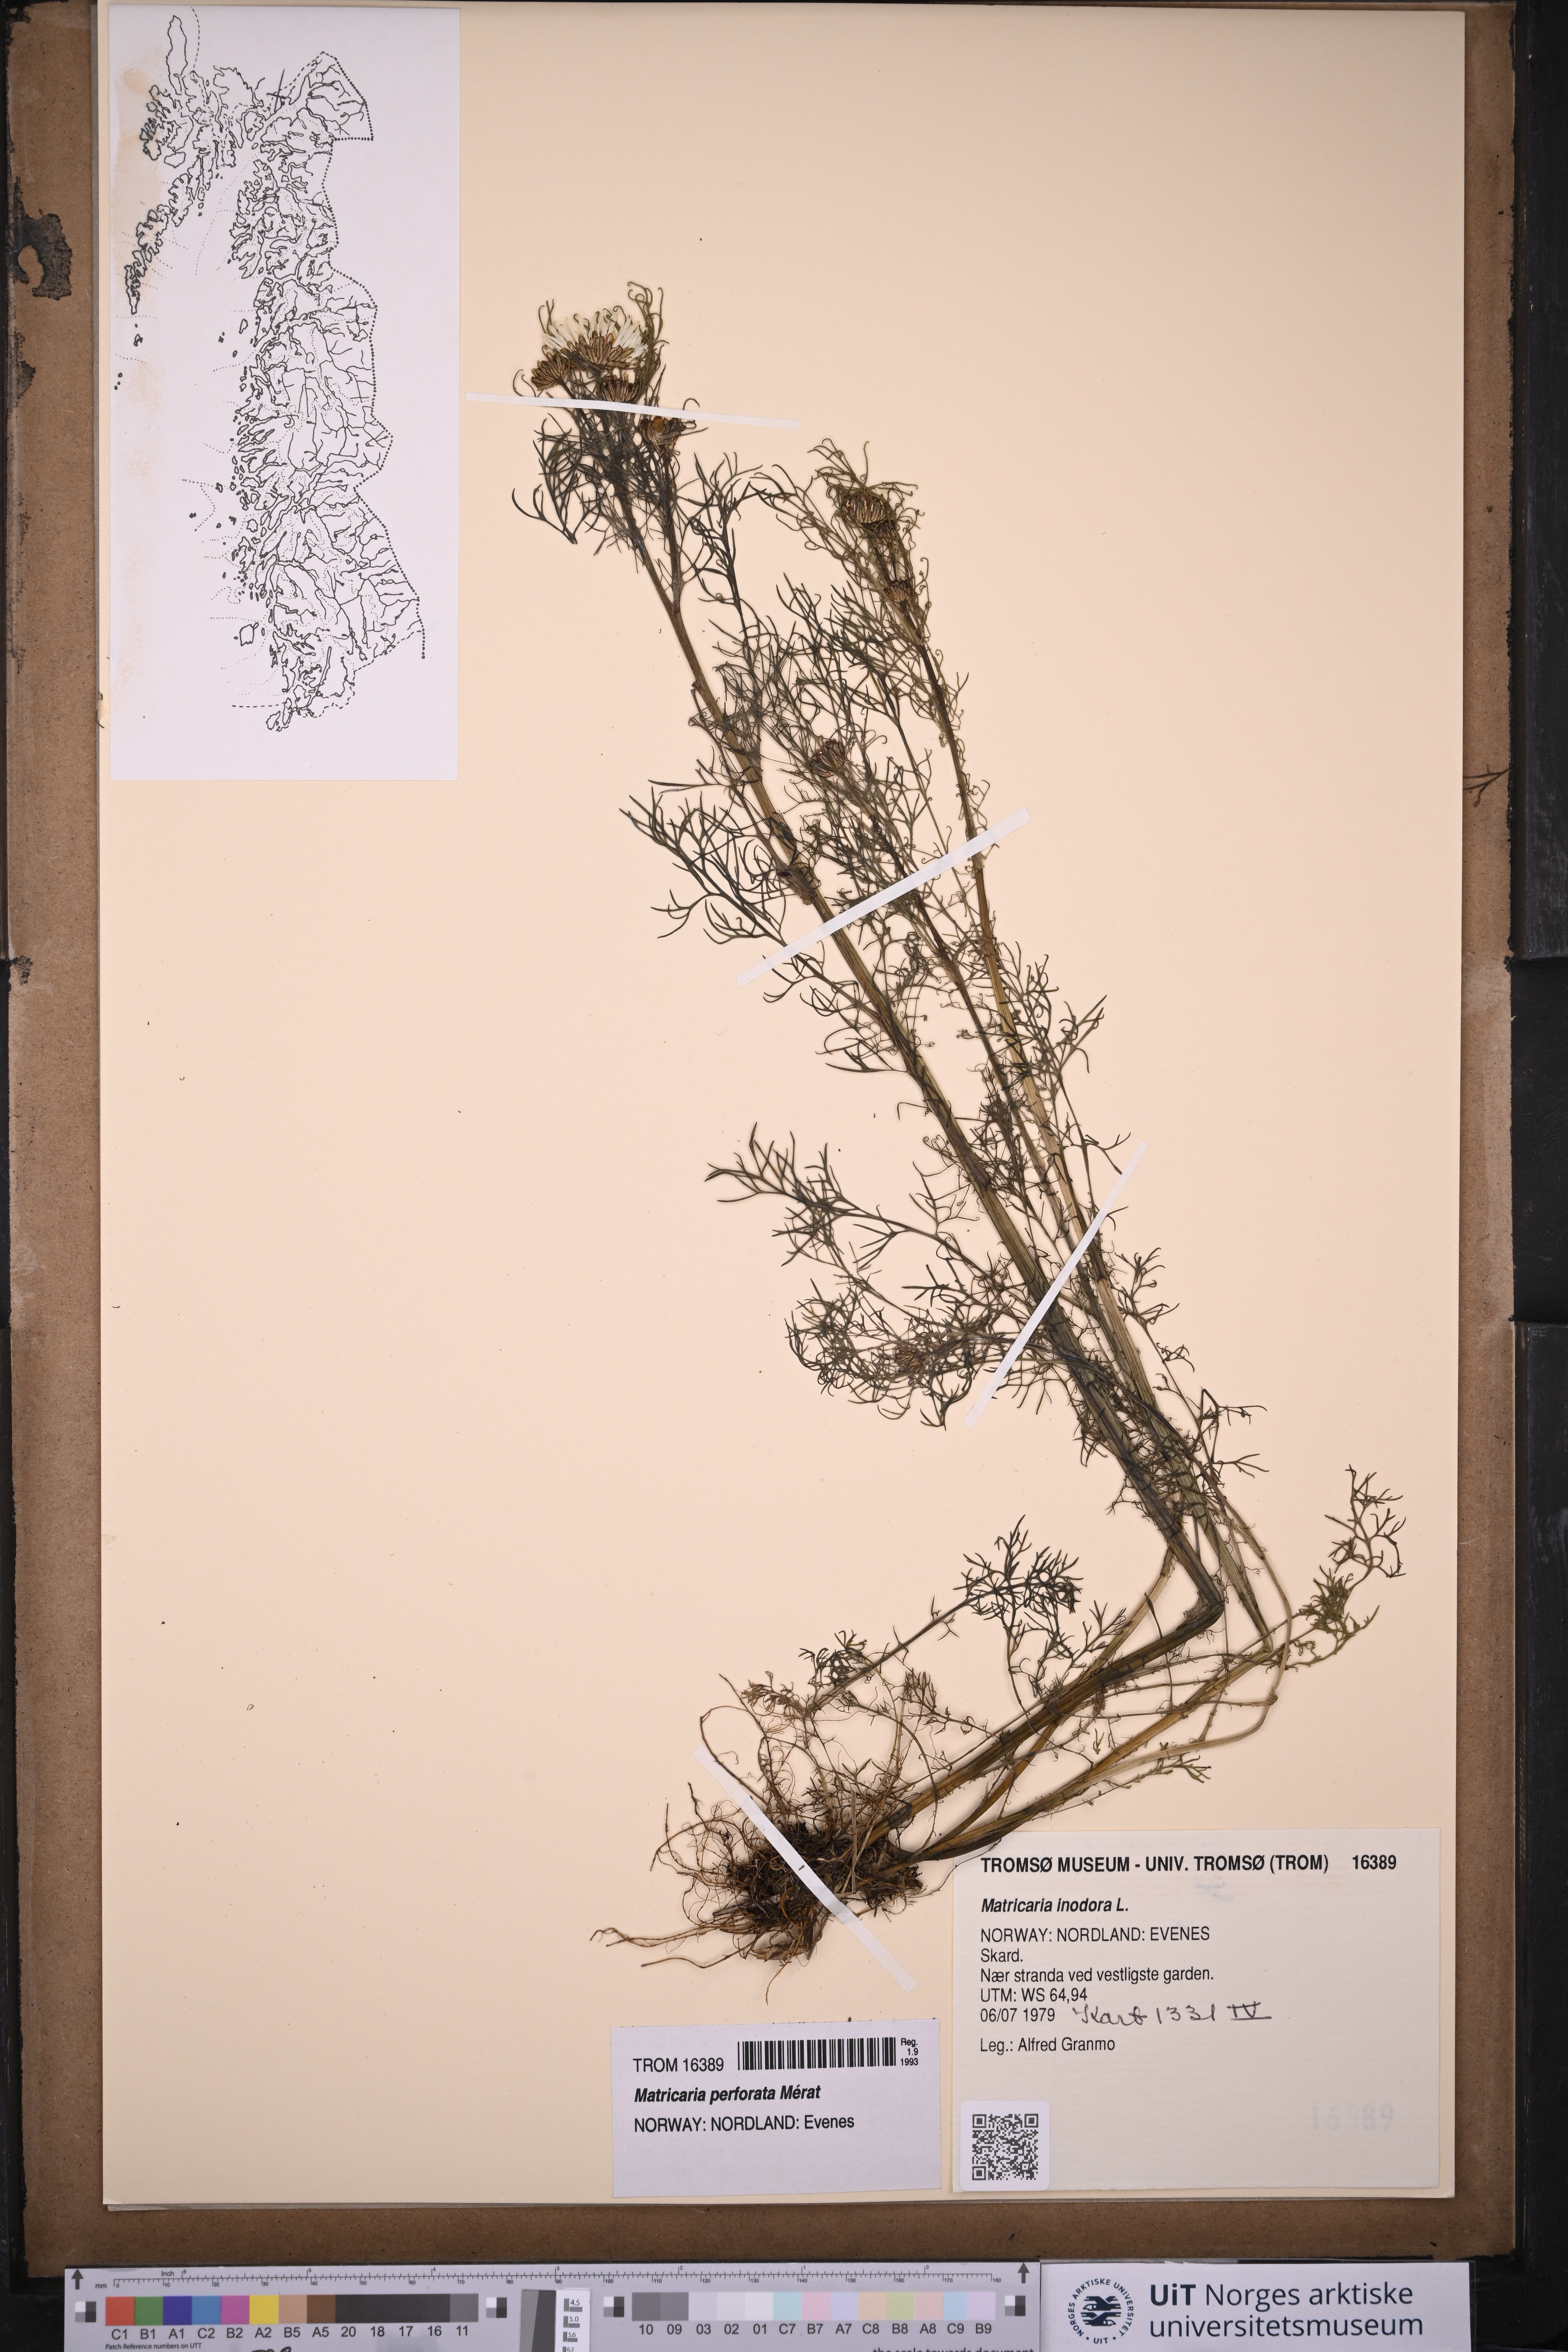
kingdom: Plantae
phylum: Tracheophyta
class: Magnoliopsida
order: Asterales
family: Asteraceae
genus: Tripleurospermum
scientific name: Tripleurospermum inodorum
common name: Scentless mayweed
